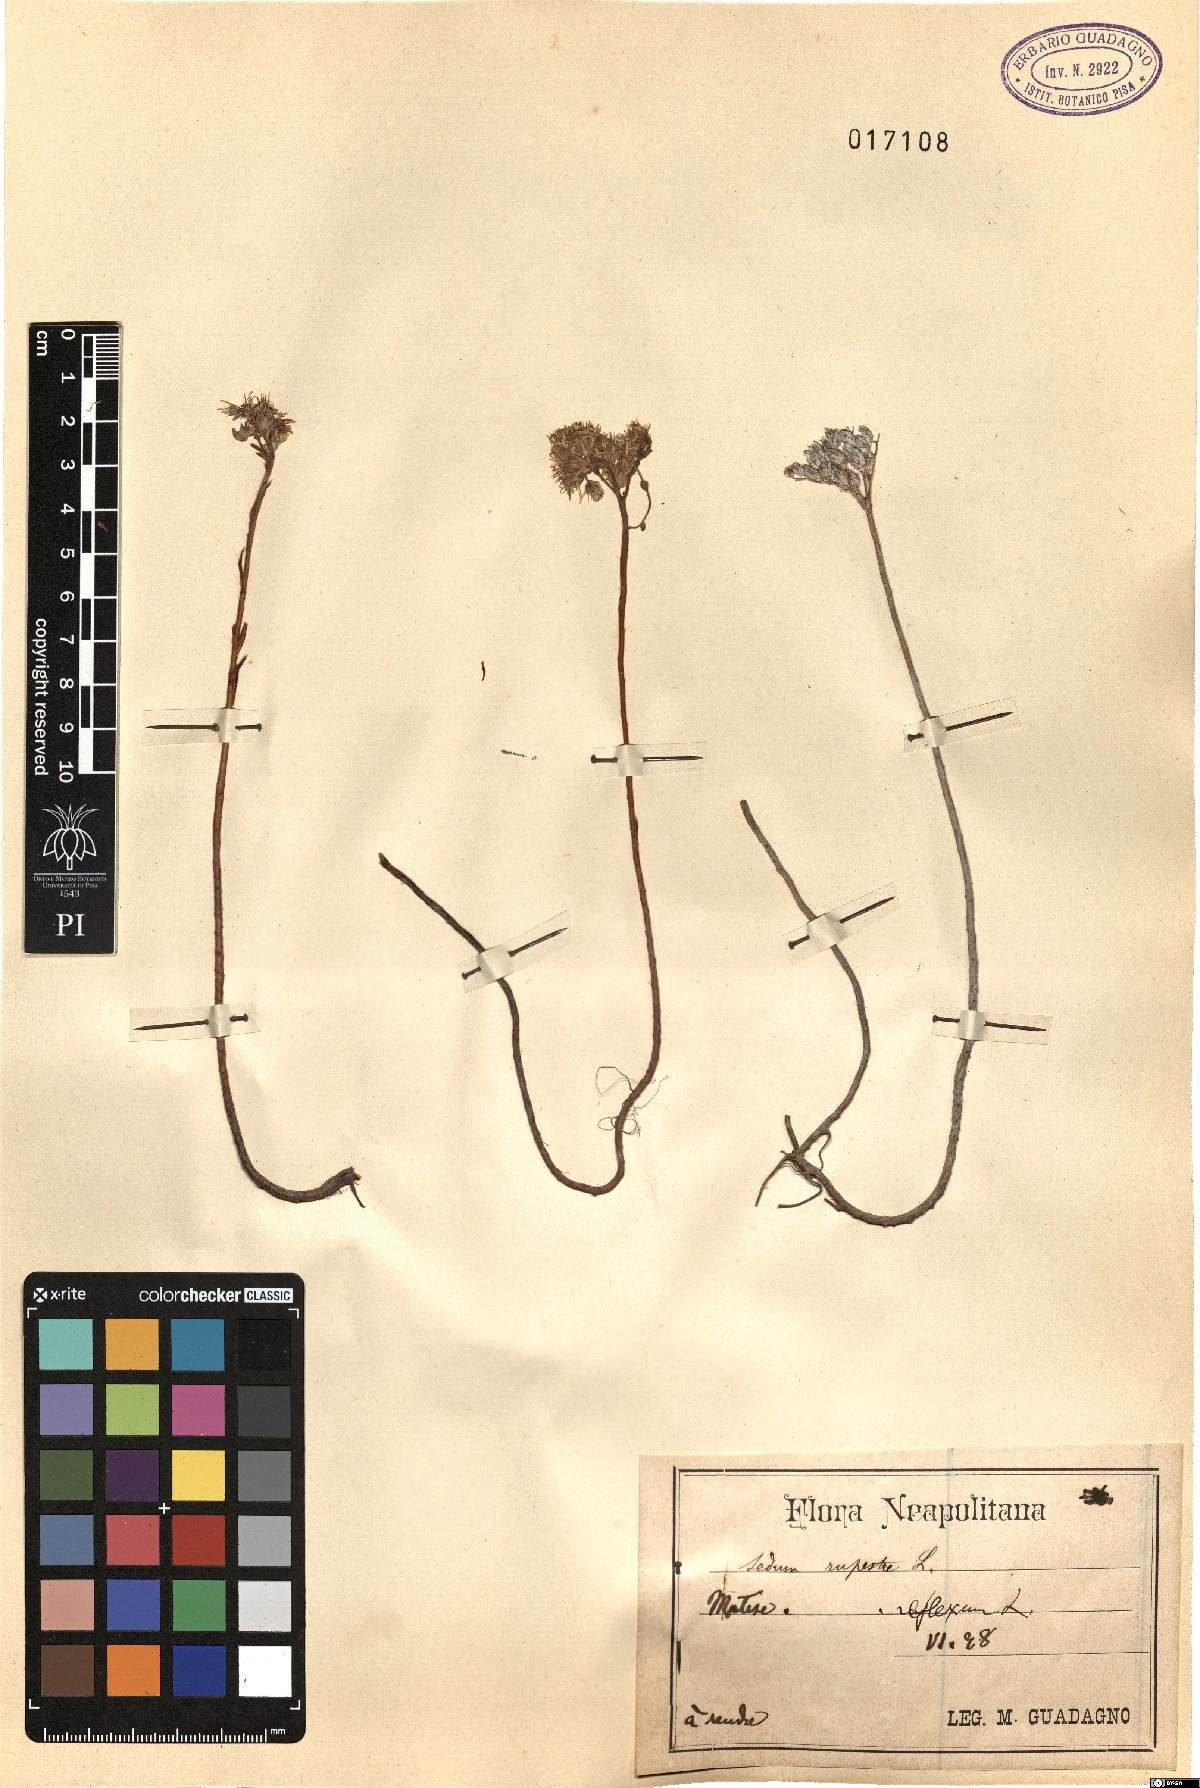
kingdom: Plantae
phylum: Tracheophyta
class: Magnoliopsida
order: Saxifragales
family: Crassulaceae
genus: Petrosedum
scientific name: Petrosedum rupestre
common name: Jenny's stonecrop
